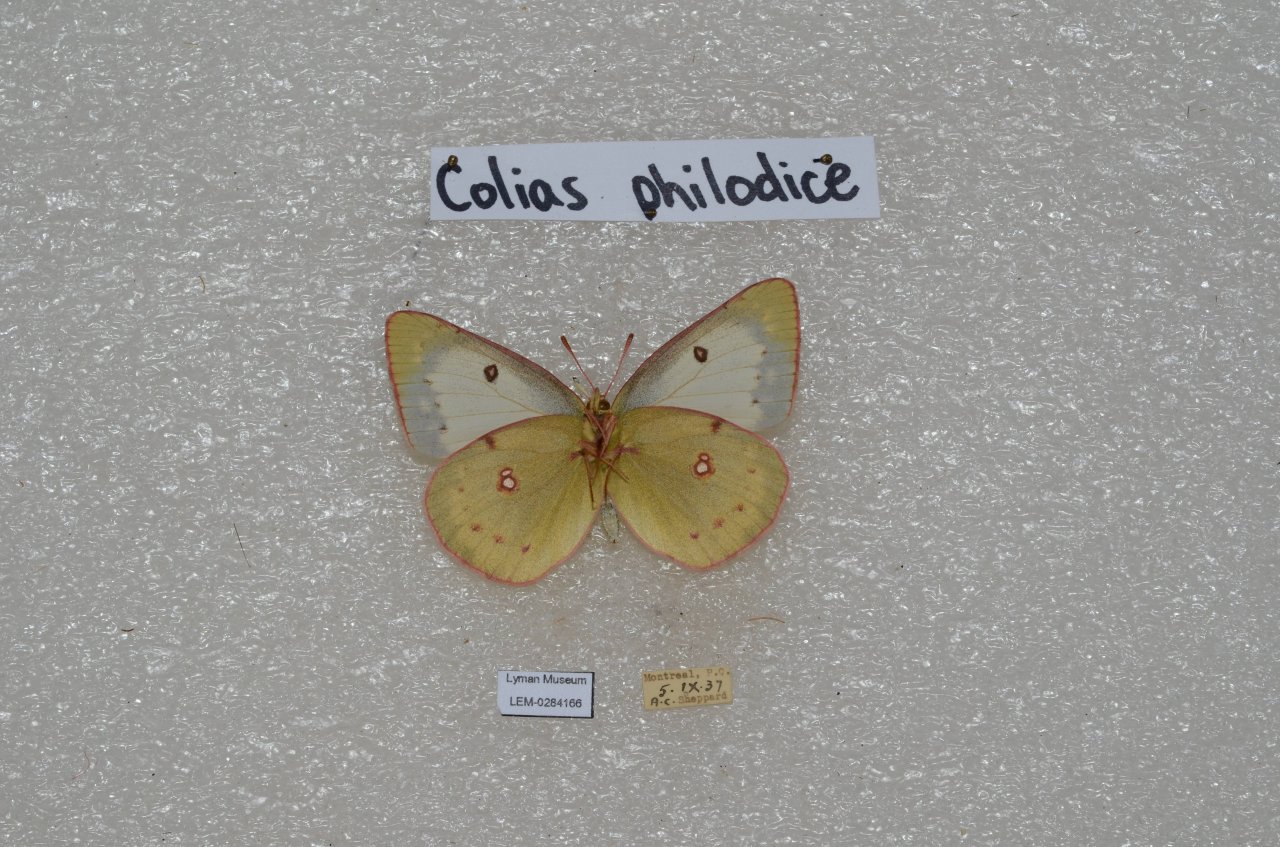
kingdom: Animalia
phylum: Arthropoda
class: Insecta
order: Lepidoptera
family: Pieridae
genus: Colias
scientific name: Colias philodice
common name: Clouded Sulphur
